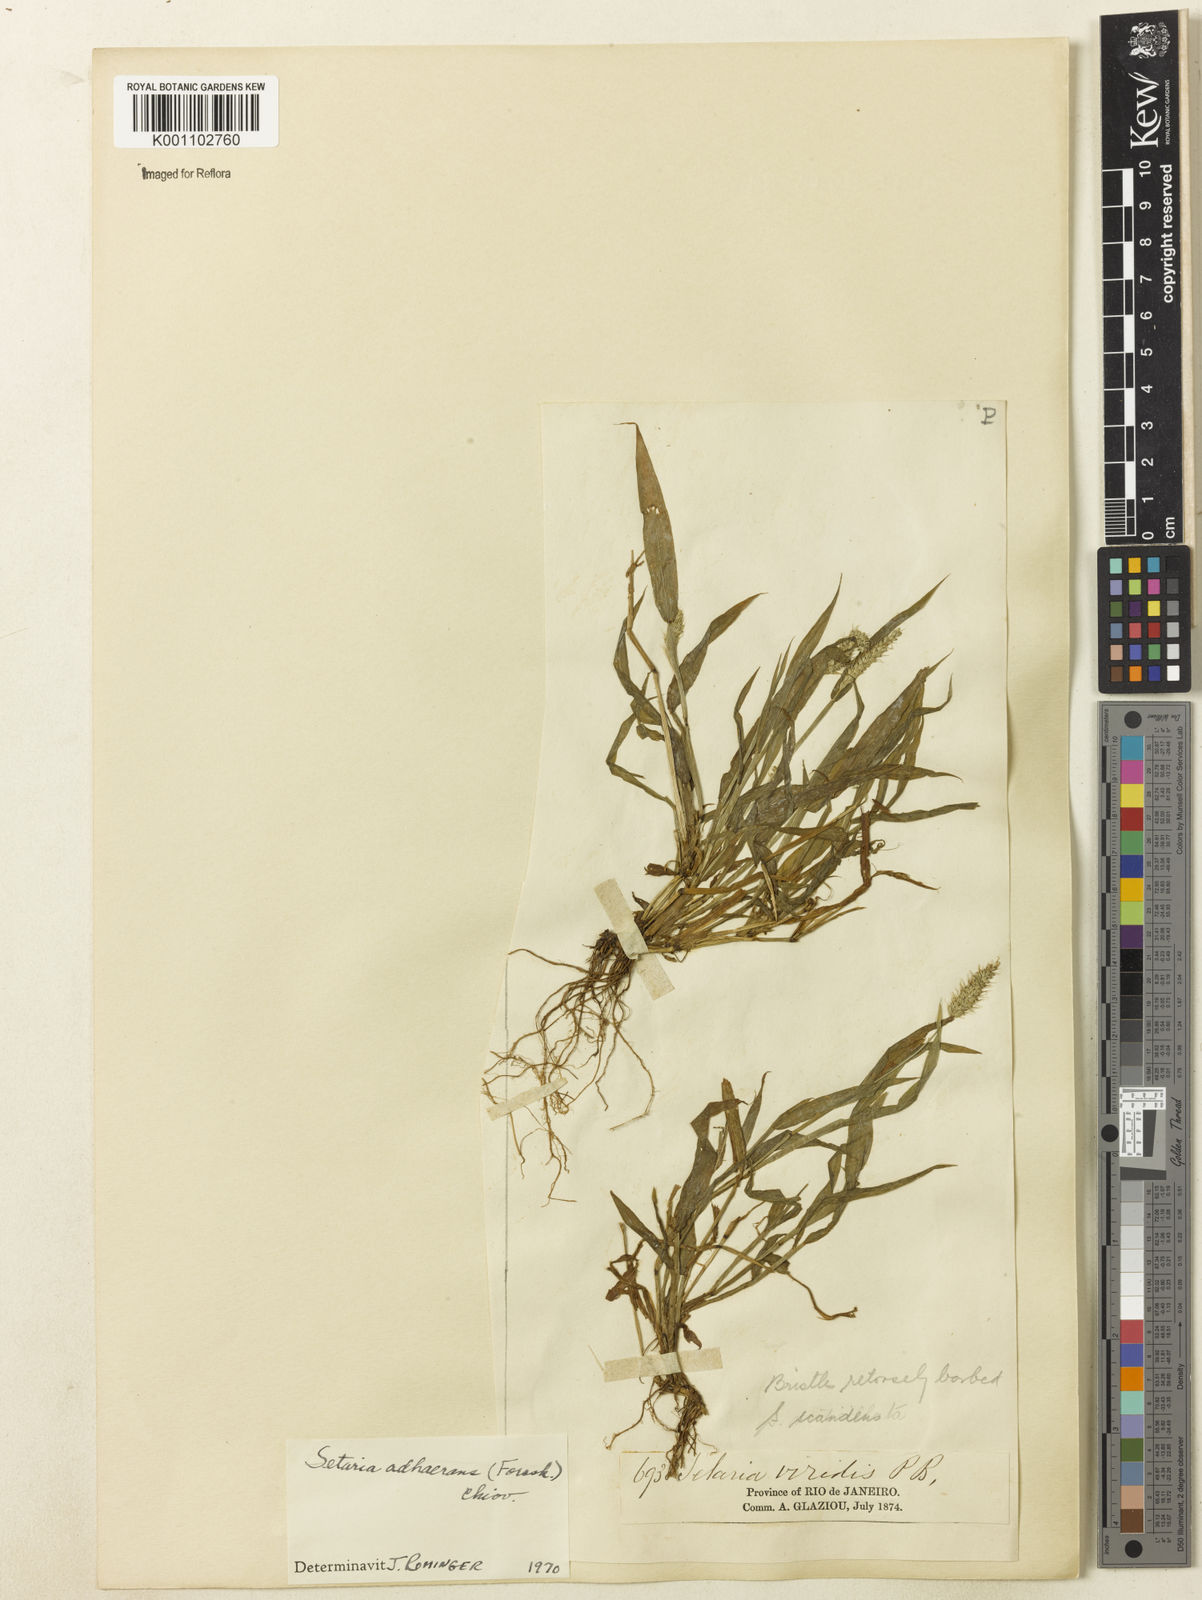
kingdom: Plantae
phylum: Tracheophyta
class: Liliopsida
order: Poales
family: Poaceae
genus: Setaria
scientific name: Setaria verticillata
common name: Hooked bristlegrass
